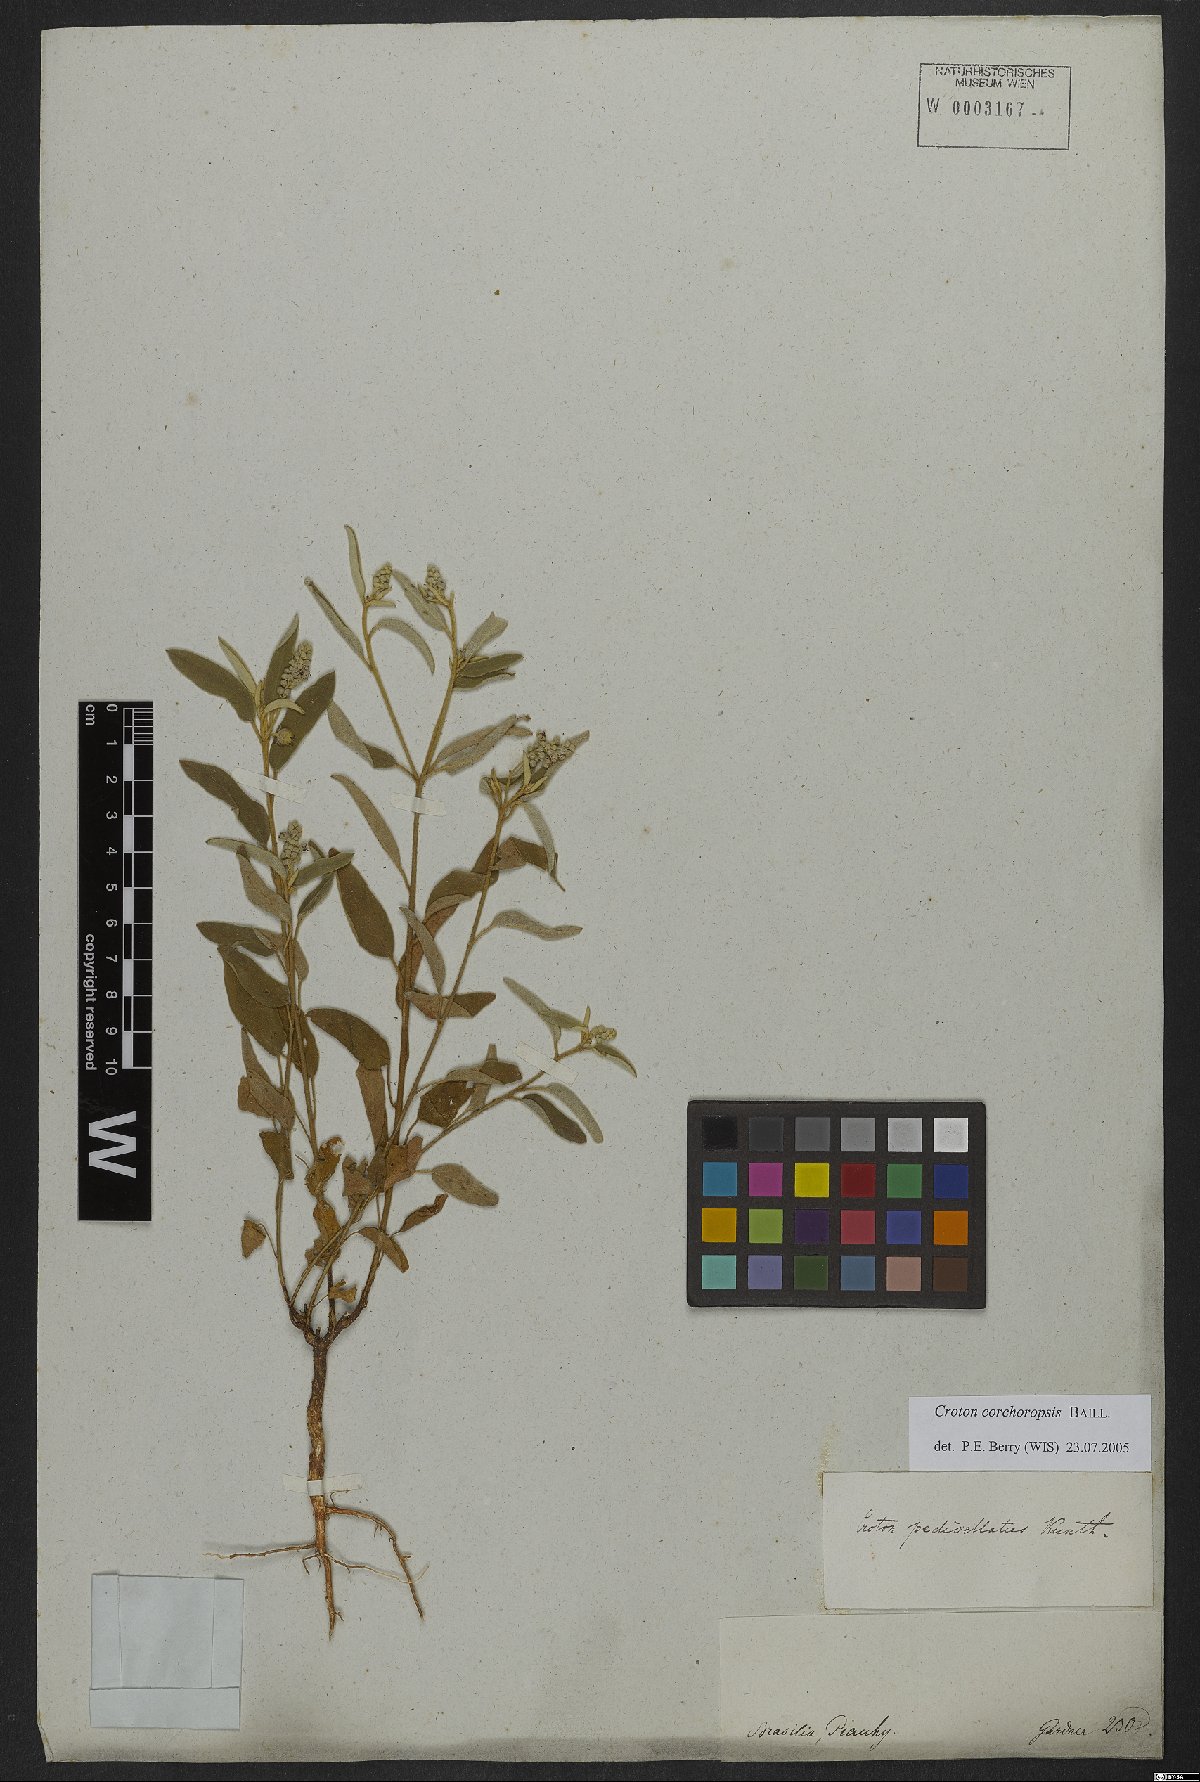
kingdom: Plantae
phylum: Tracheophyta
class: Magnoliopsida
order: Malpighiales
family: Euphorbiaceae
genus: Croton
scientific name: Croton corchoropsis
